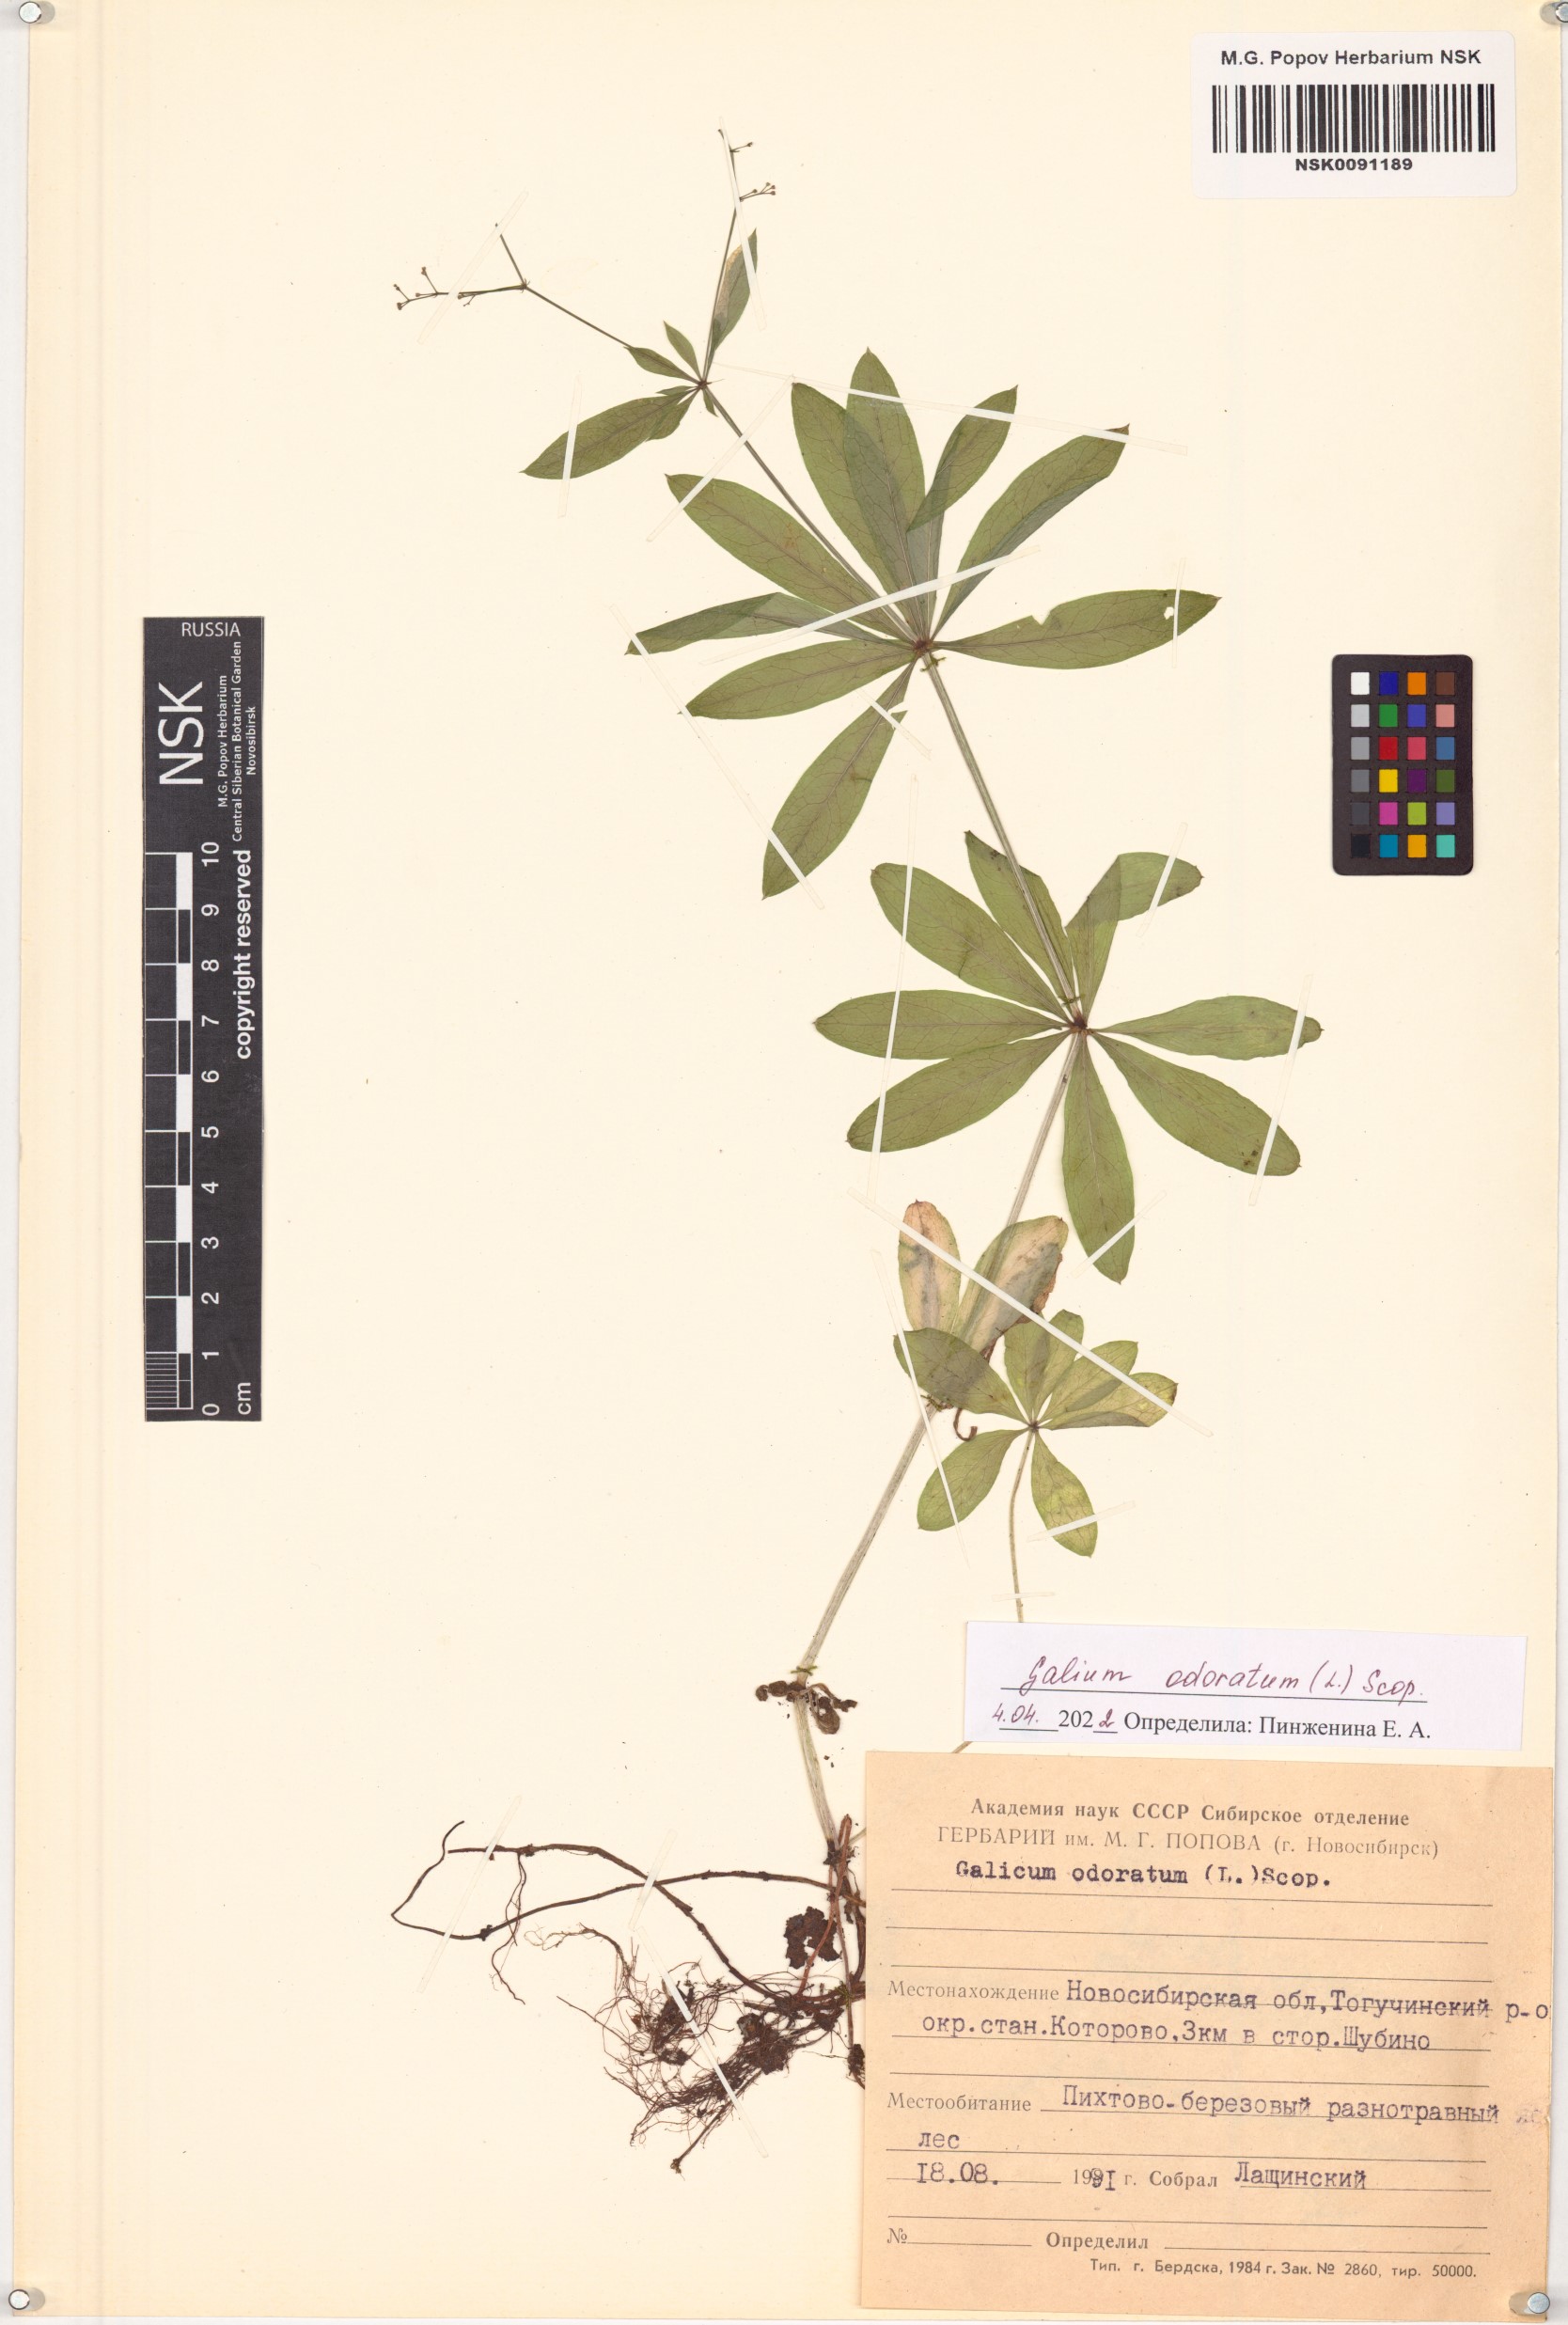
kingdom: Plantae
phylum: Tracheophyta
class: Magnoliopsida
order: Gentianales
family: Rubiaceae
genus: Galium
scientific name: Galium odoratum
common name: Sweet woodruff
